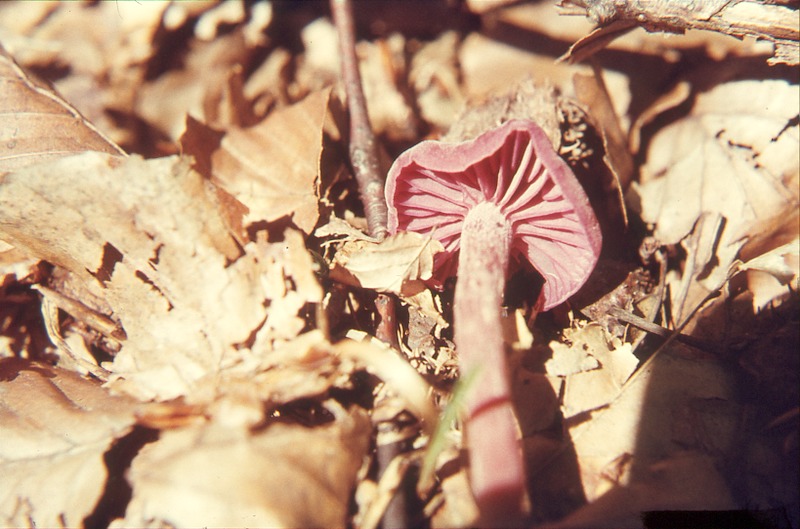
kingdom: Fungi
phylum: Basidiomycota
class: Agaricomycetes
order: Agaricales
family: Hydnangiaceae
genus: Laccaria
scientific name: Laccaria amethystina
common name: Amethyst deceiver
